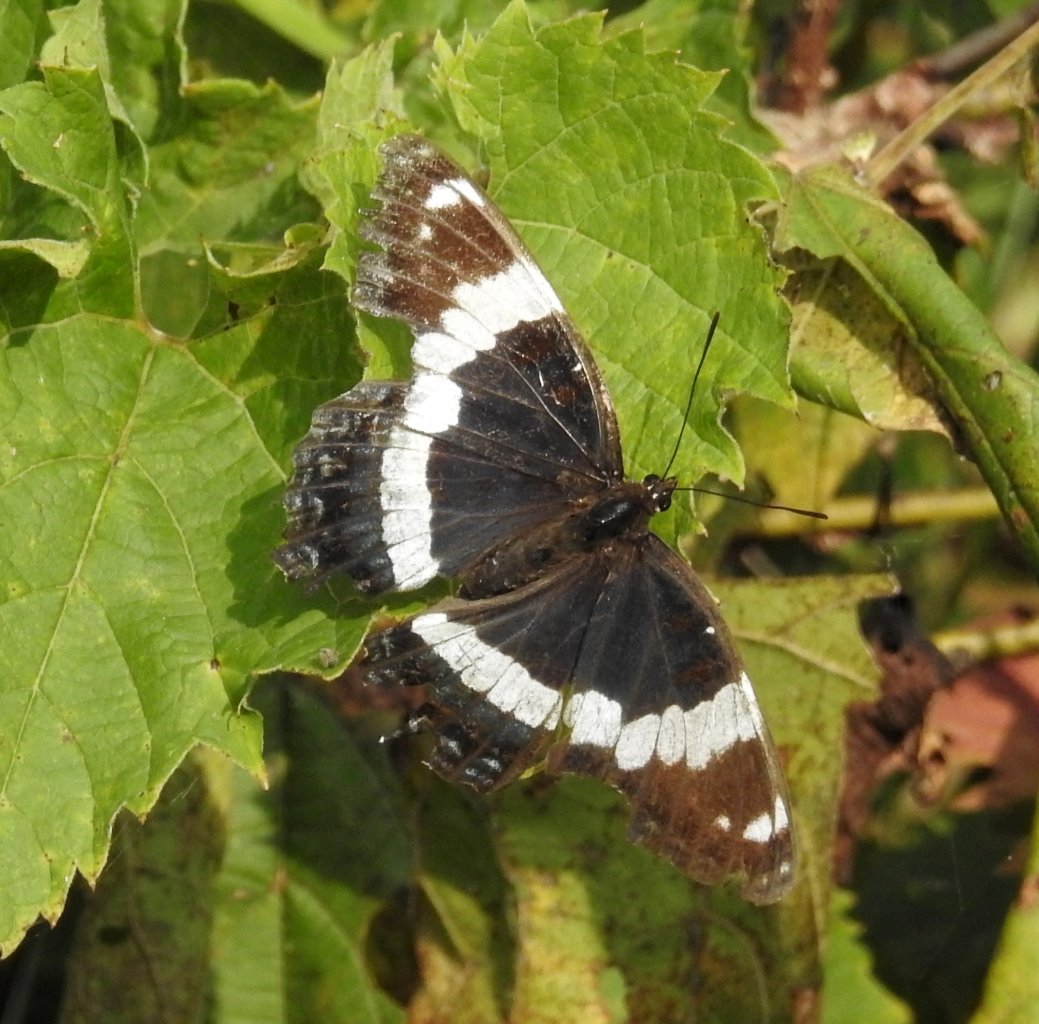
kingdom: Animalia
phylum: Arthropoda
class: Insecta
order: Lepidoptera
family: Nymphalidae
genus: Limenitis
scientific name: Limenitis arthemis
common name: Red-spotted Admiral
